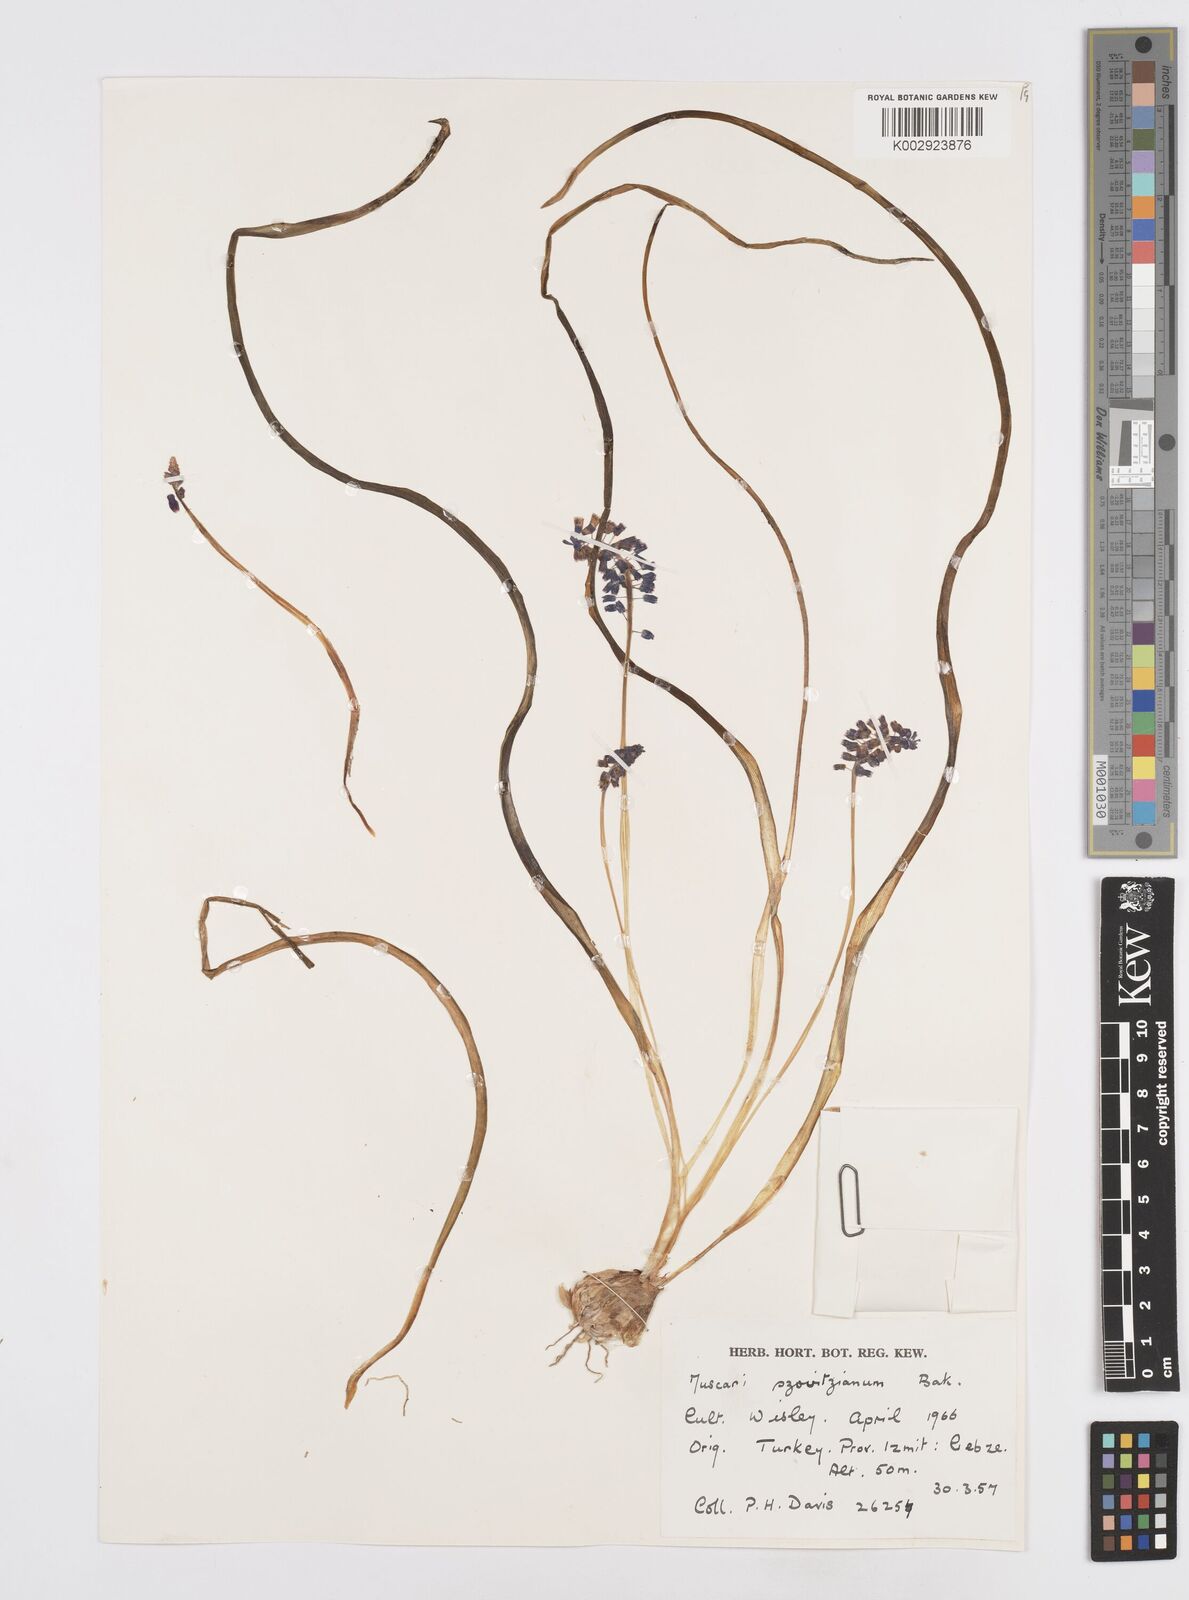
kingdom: Plantae
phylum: Tracheophyta
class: Liliopsida
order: Asparagales
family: Asparagaceae
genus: Muscari
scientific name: Muscari armeniacum
